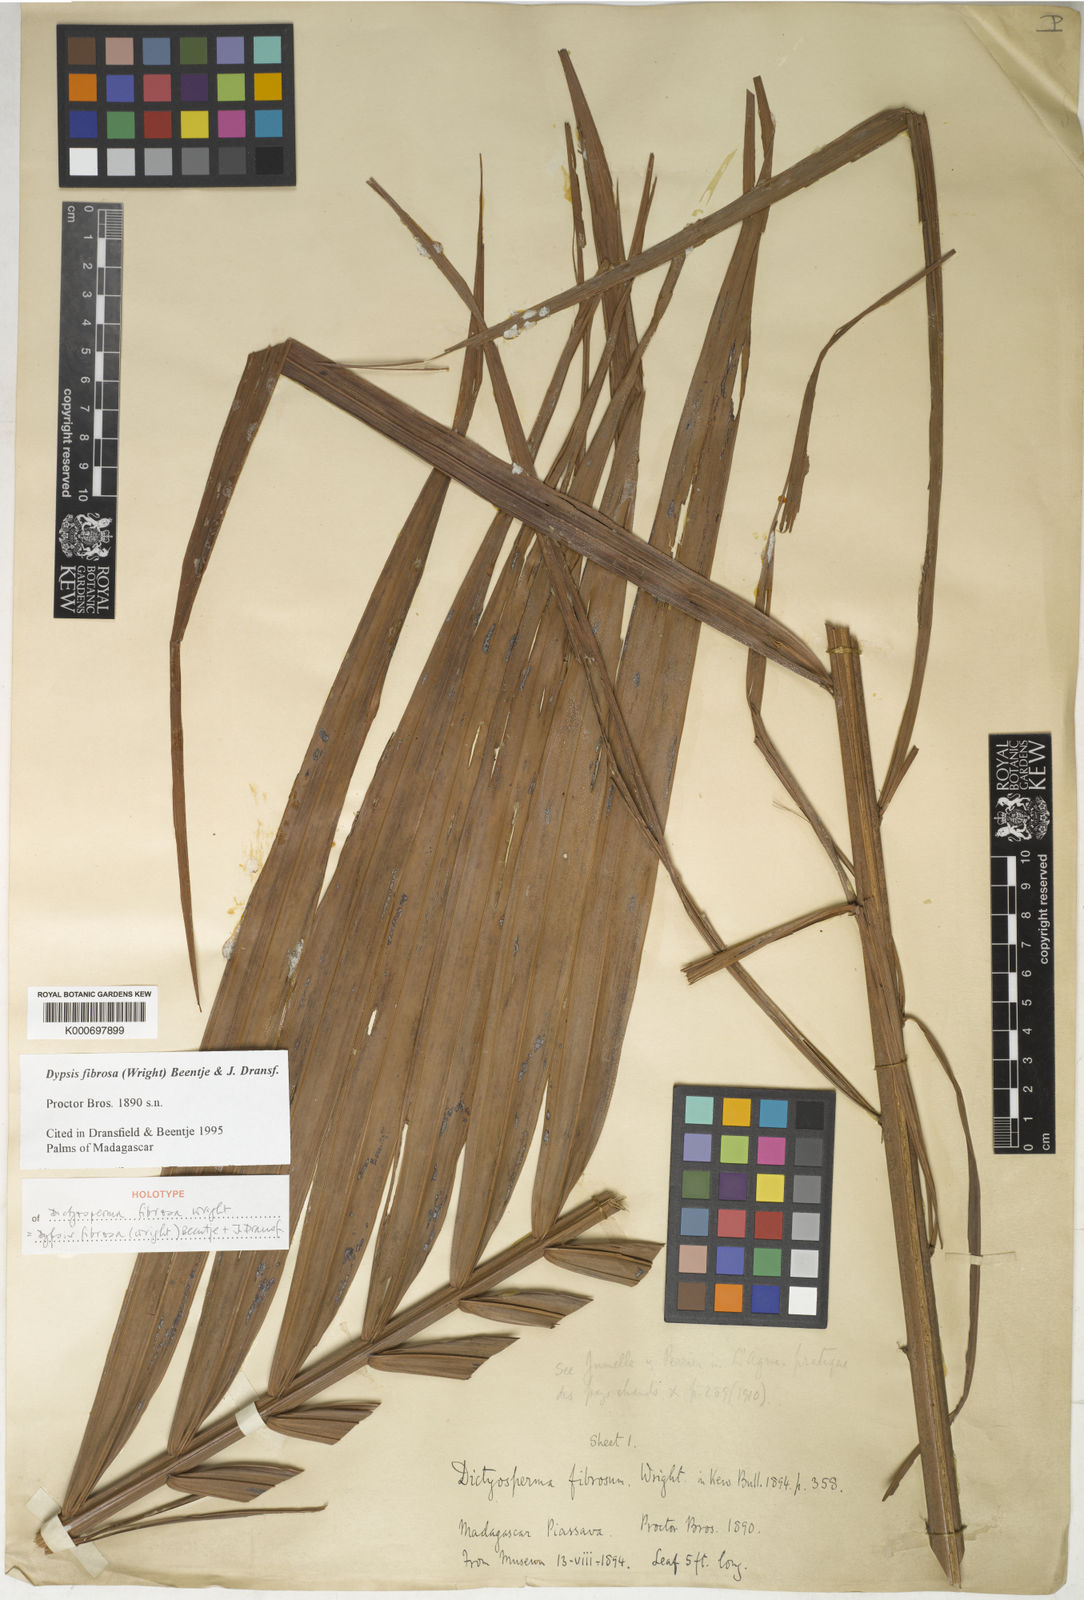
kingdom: Plantae
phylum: Tracheophyta
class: Liliopsida
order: Arecales
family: Arecaceae
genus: Dypsis
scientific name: Dypsis fibrosa
